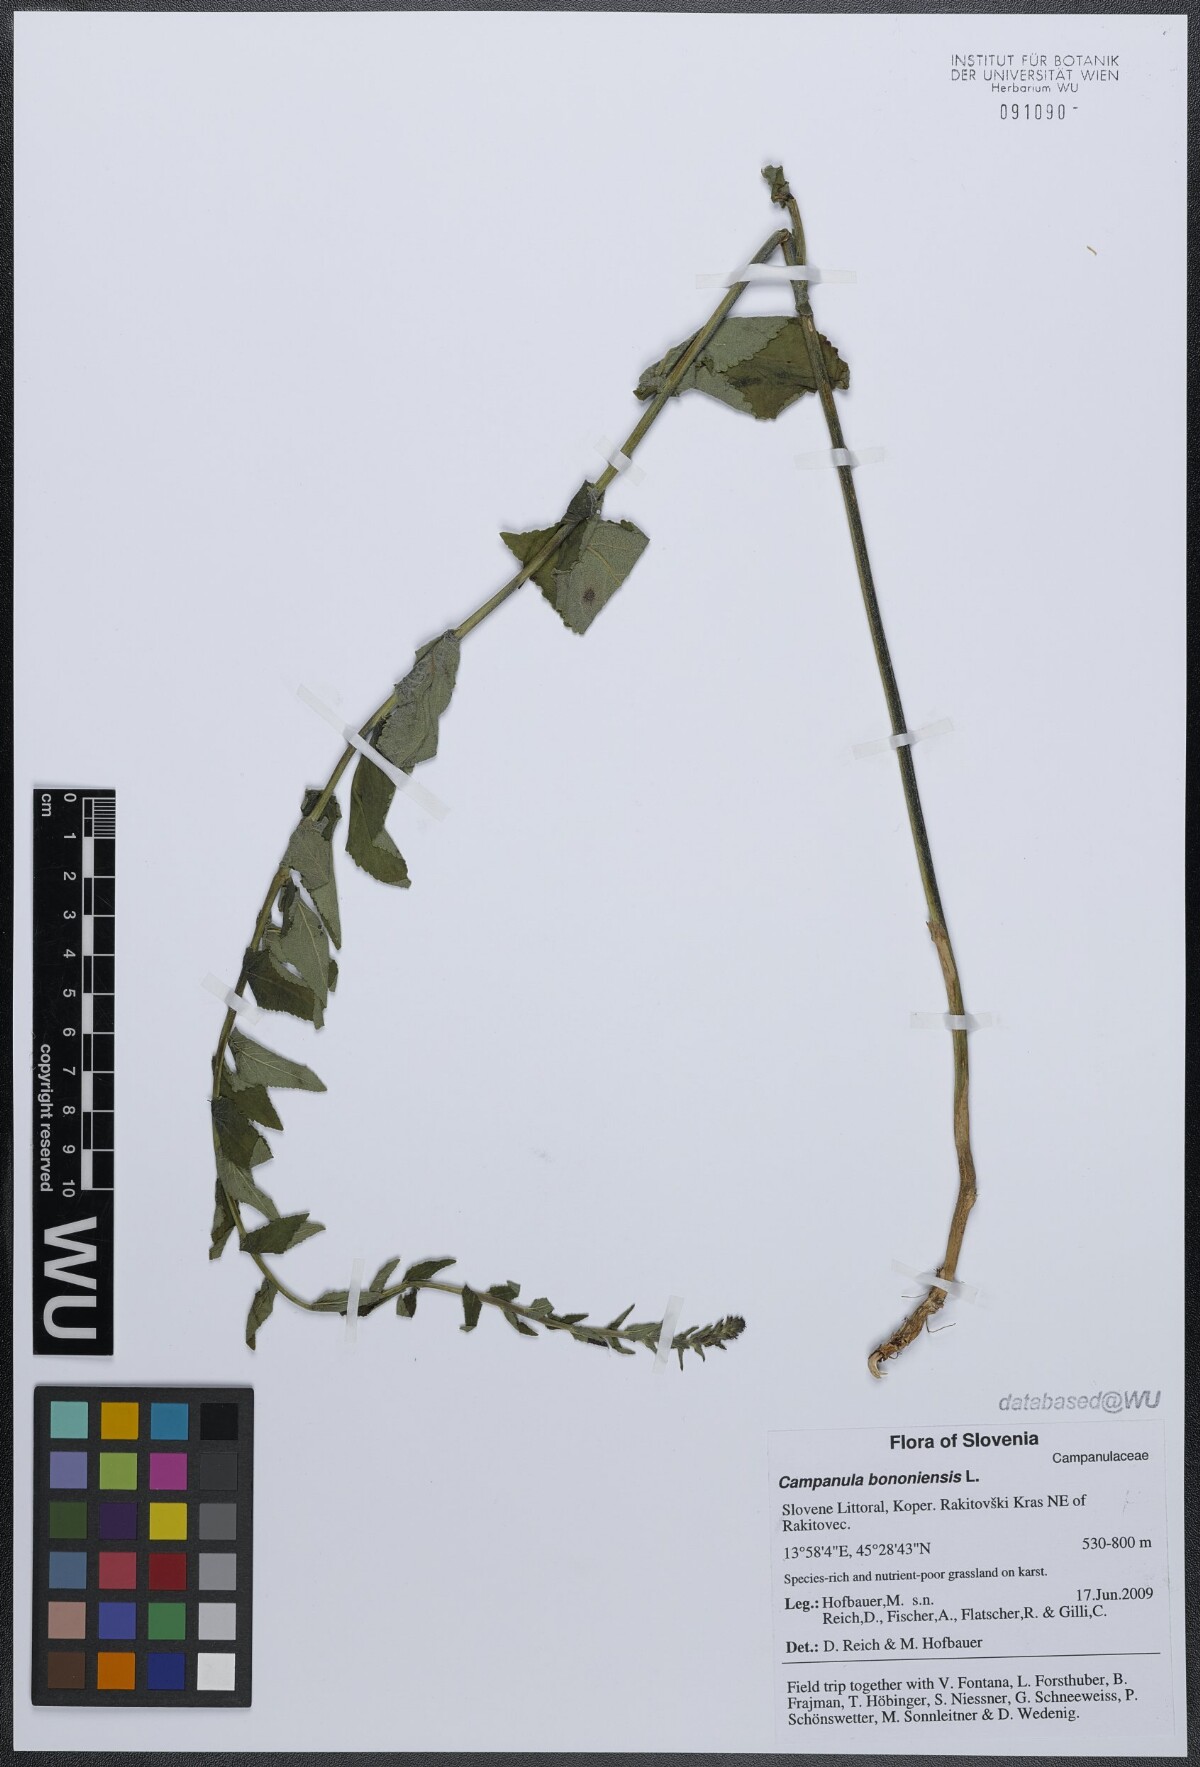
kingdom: Plantae
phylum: Tracheophyta
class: Magnoliopsida
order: Asterales
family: Campanulaceae
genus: Campanula
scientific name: Campanula bononiensis
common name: Pale bellflower
